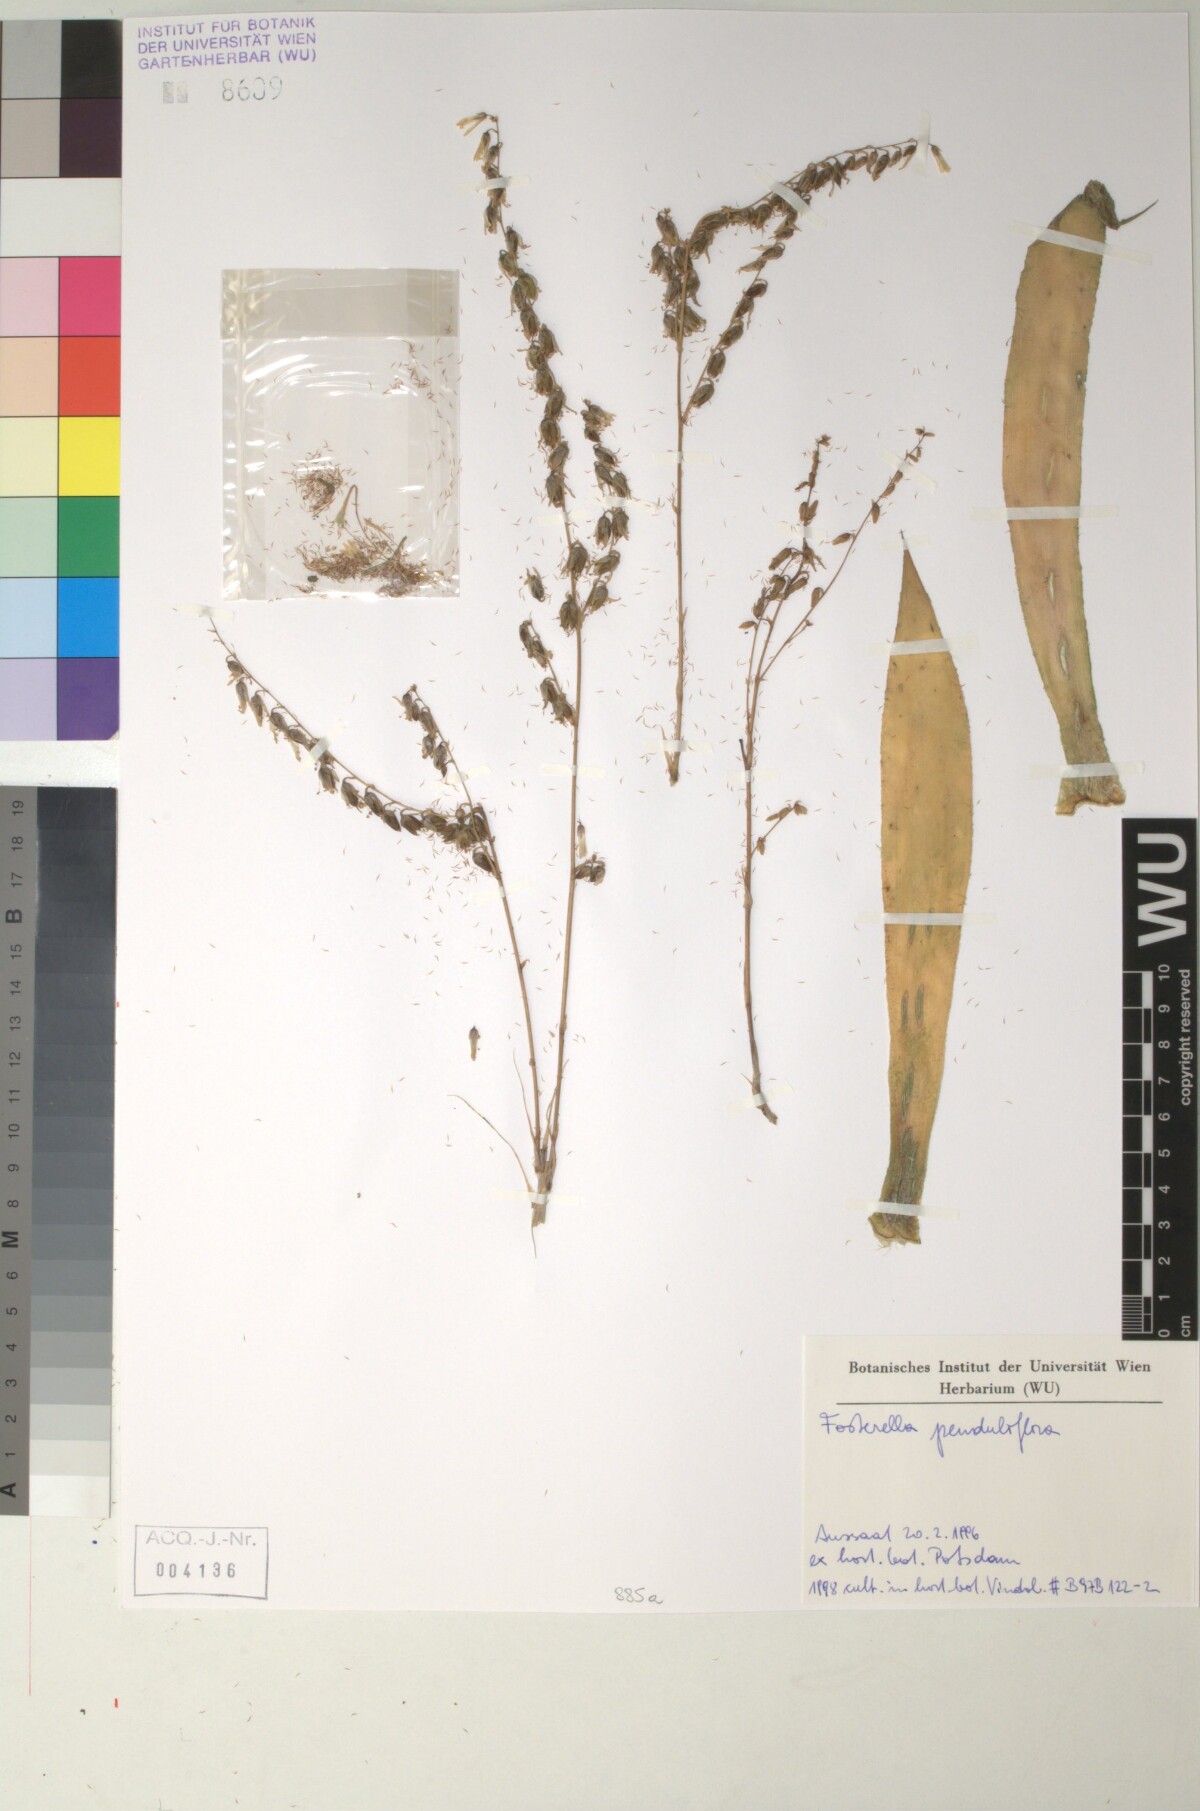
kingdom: Plantae
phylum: Tracheophyta
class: Liliopsida
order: Poales
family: Bromeliaceae
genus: Fosterella
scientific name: Fosterella penduliflora
